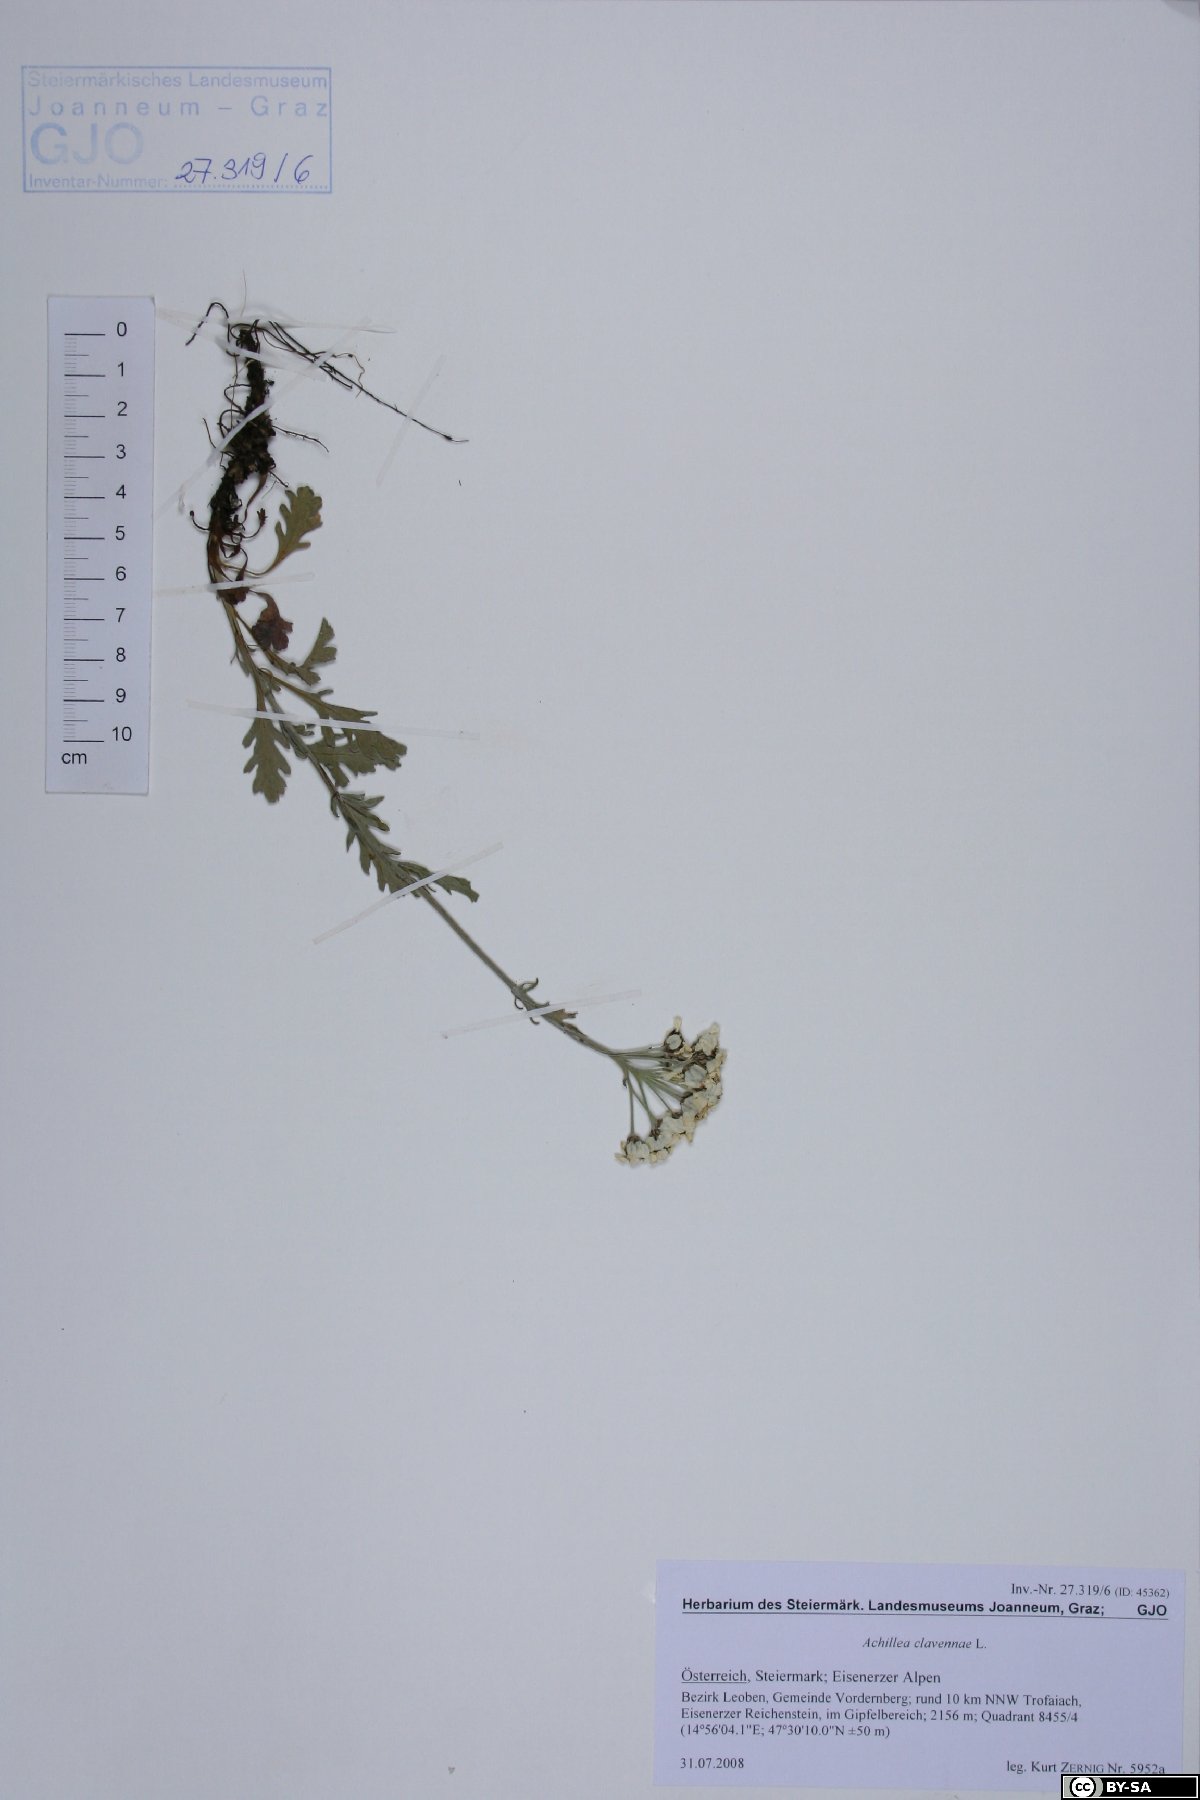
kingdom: Plantae
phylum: Tracheophyta
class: Magnoliopsida
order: Asterales
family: Asteraceae
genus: Achillea
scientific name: Achillea clavennae
